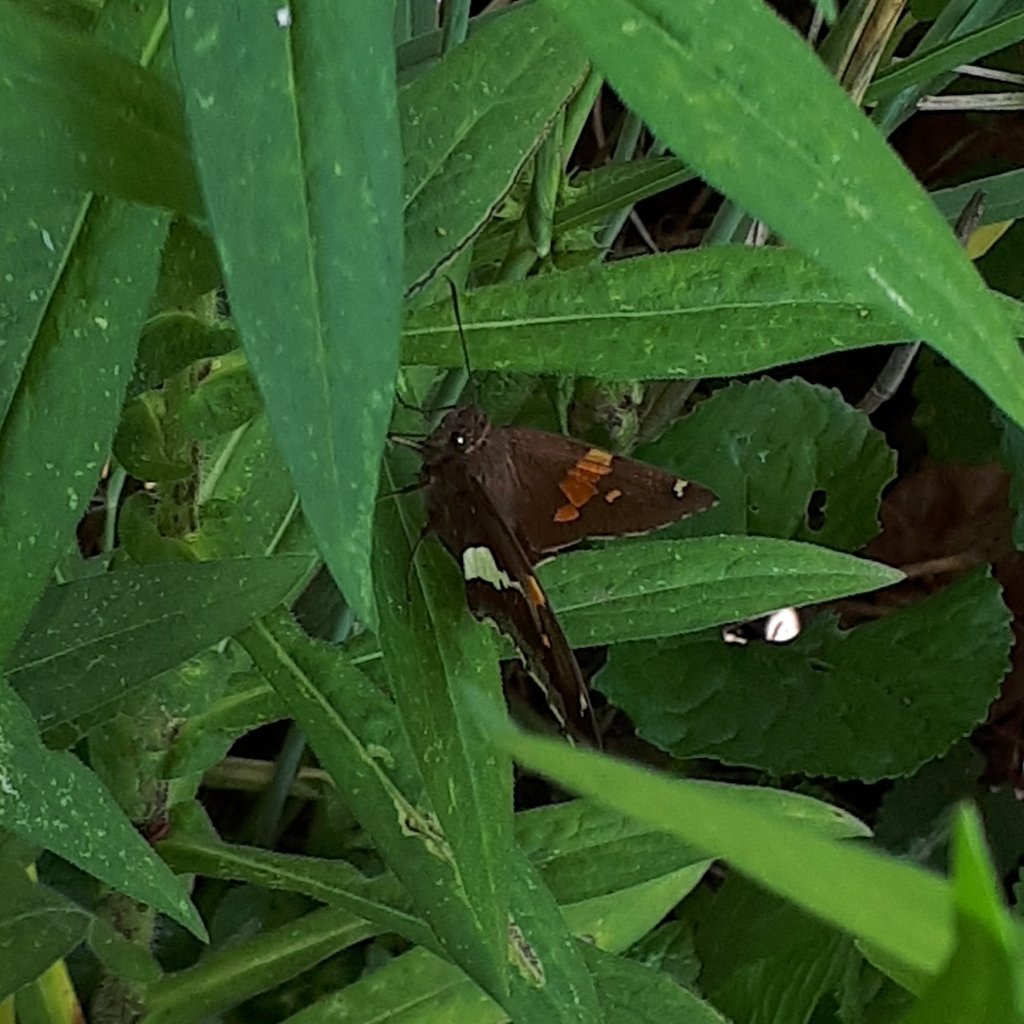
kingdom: Animalia
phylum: Arthropoda
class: Insecta
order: Lepidoptera
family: Hesperiidae
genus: Epargyreus
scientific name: Epargyreus clarus
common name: Silver-spotted Skipper
